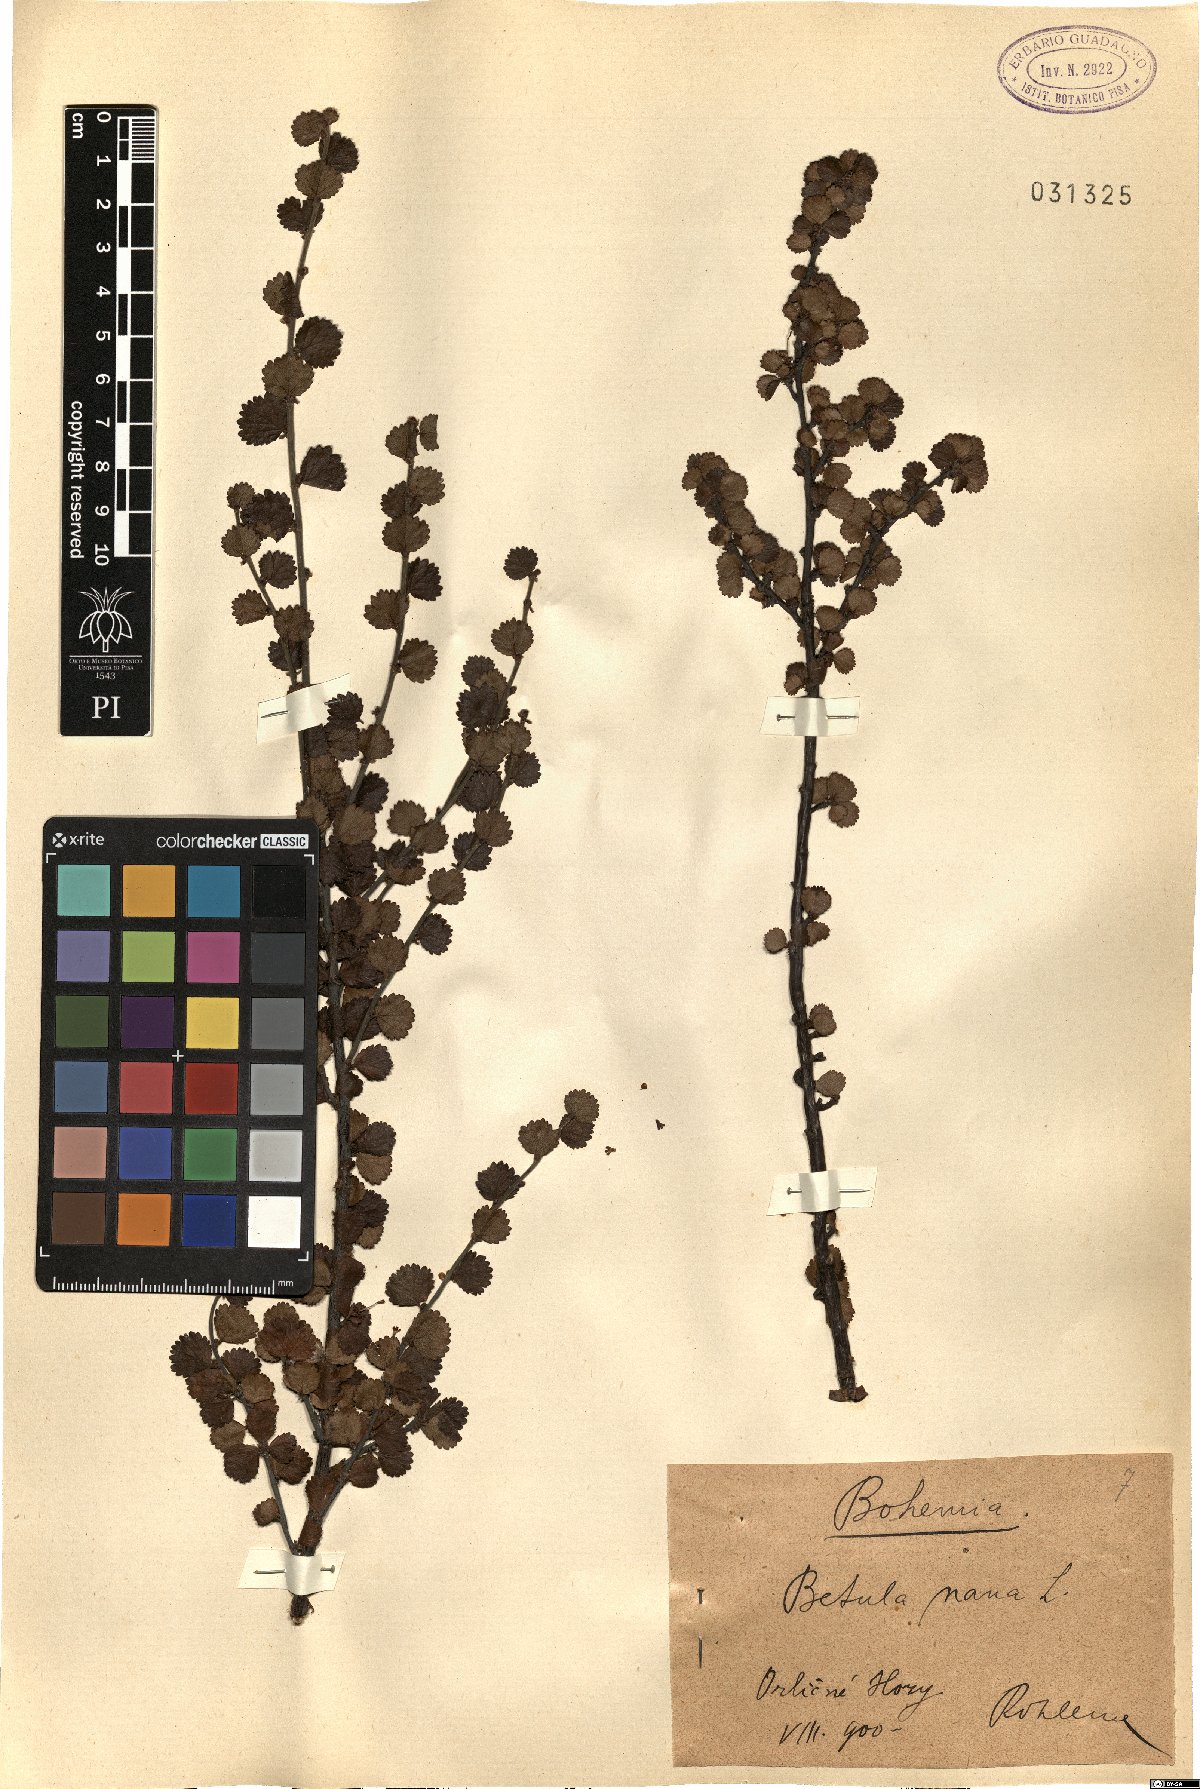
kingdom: Plantae
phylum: Tracheophyta
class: Magnoliopsida
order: Fagales
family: Betulaceae
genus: Betula
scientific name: Betula nana
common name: Arctic dwarf birch
